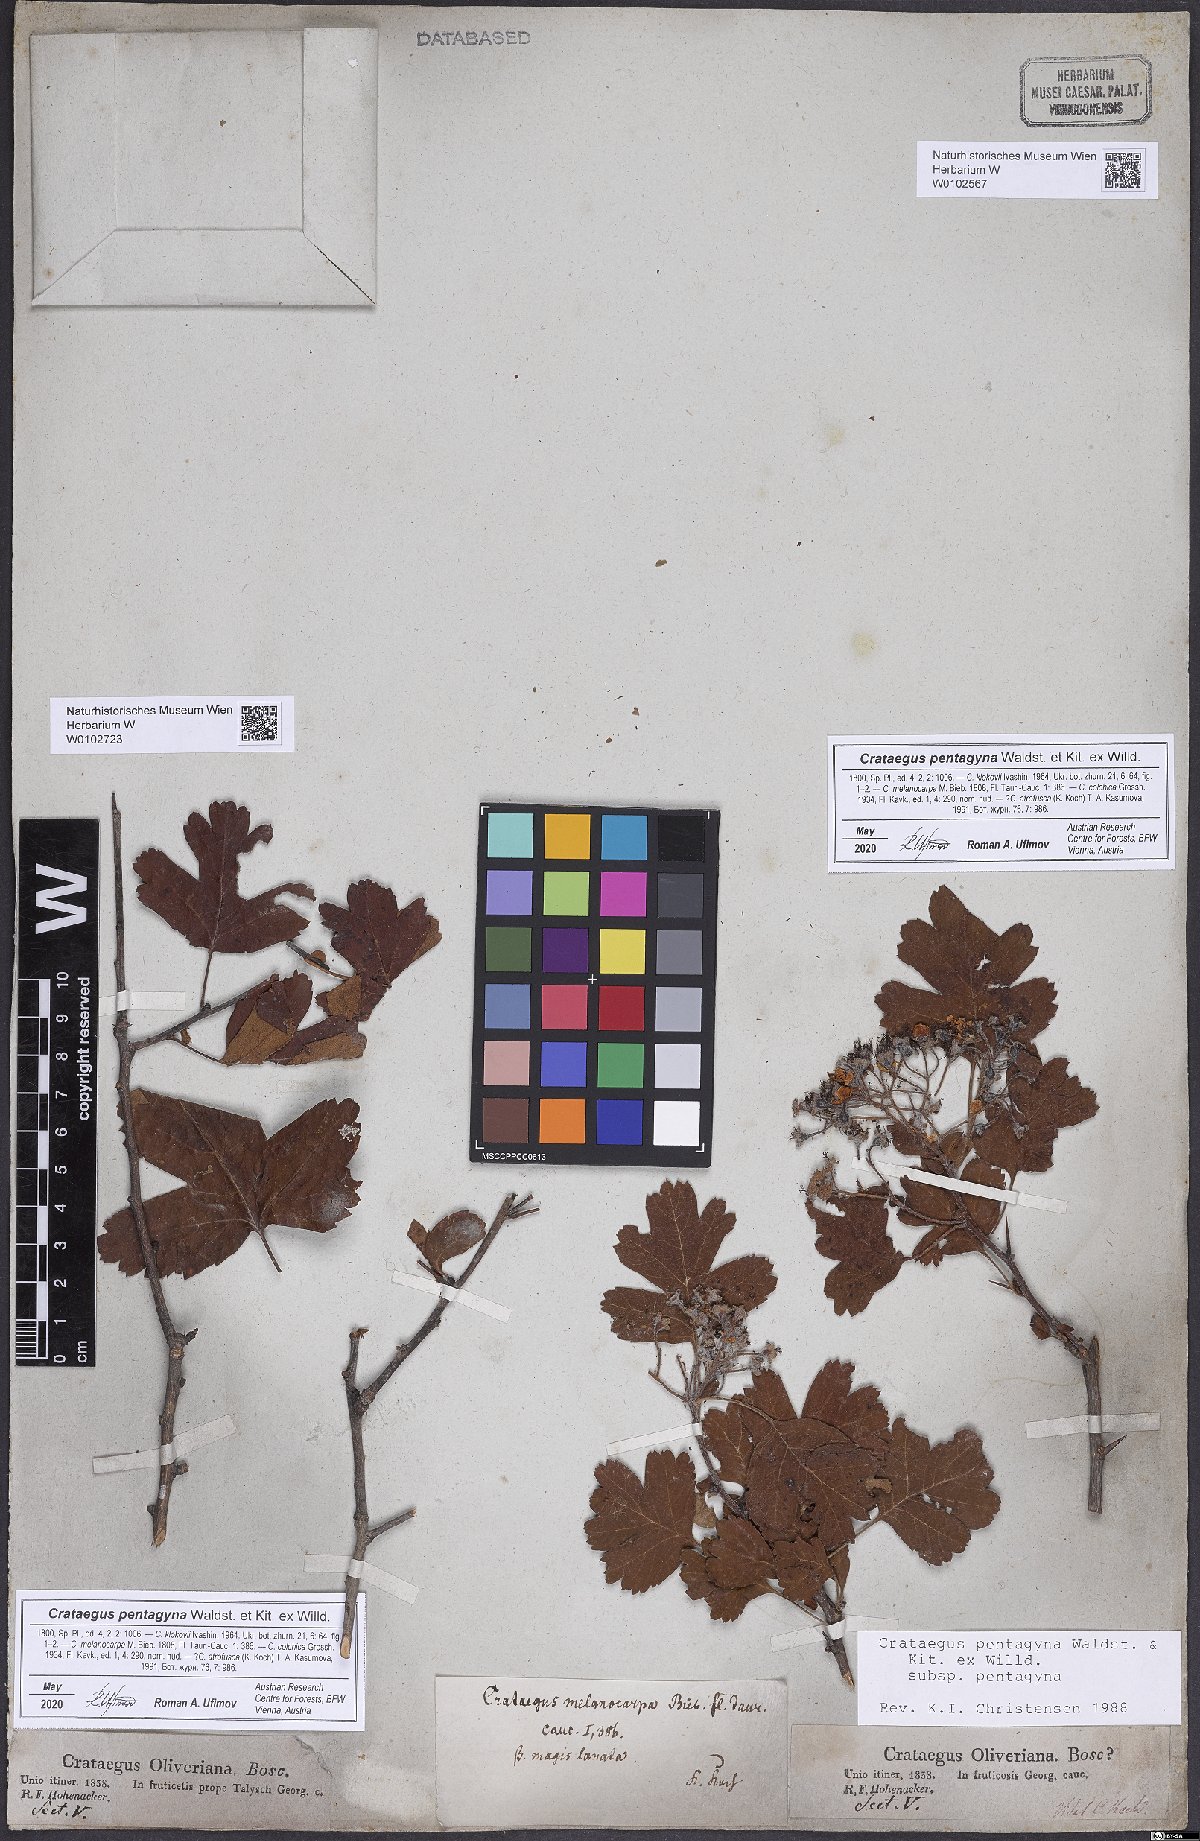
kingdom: Plantae
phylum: Tracheophyta
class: Magnoliopsida
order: Rosales
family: Rosaceae
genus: Crataegus
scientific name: Crataegus pentagyna
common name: Small-flowered black hawthorn
